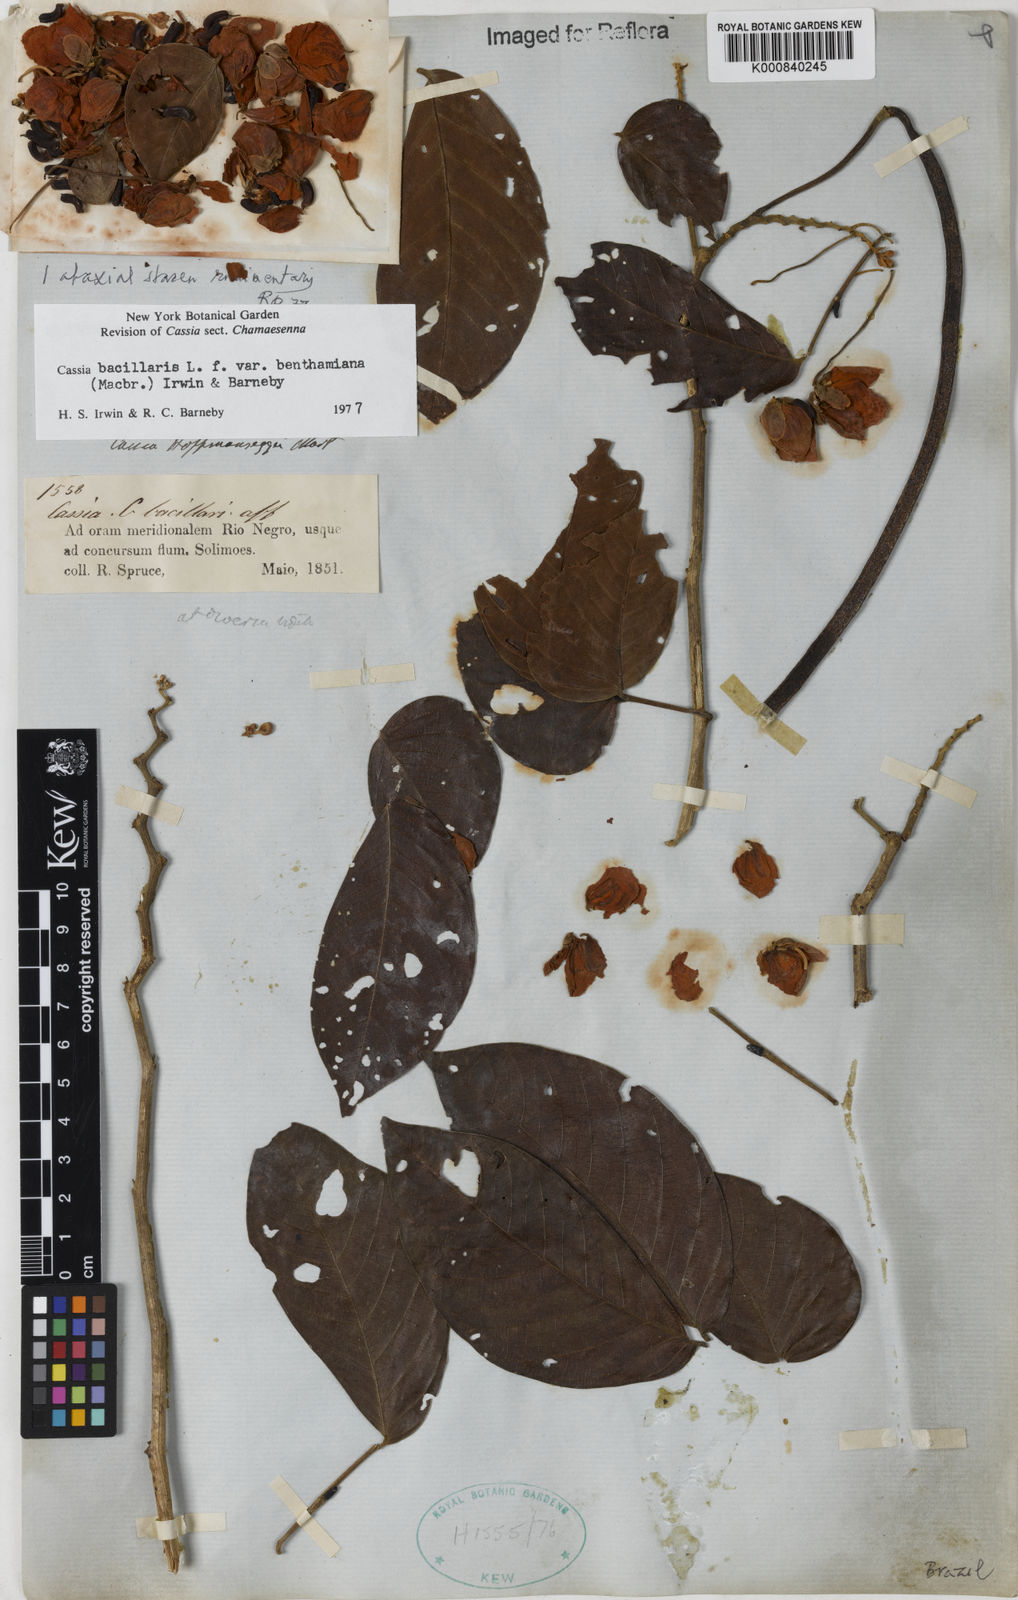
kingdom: Plantae
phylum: Tracheophyta
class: Magnoliopsida
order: Fabales
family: Fabaceae
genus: Senna
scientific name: Senna bacillaris
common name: West indian showertree
